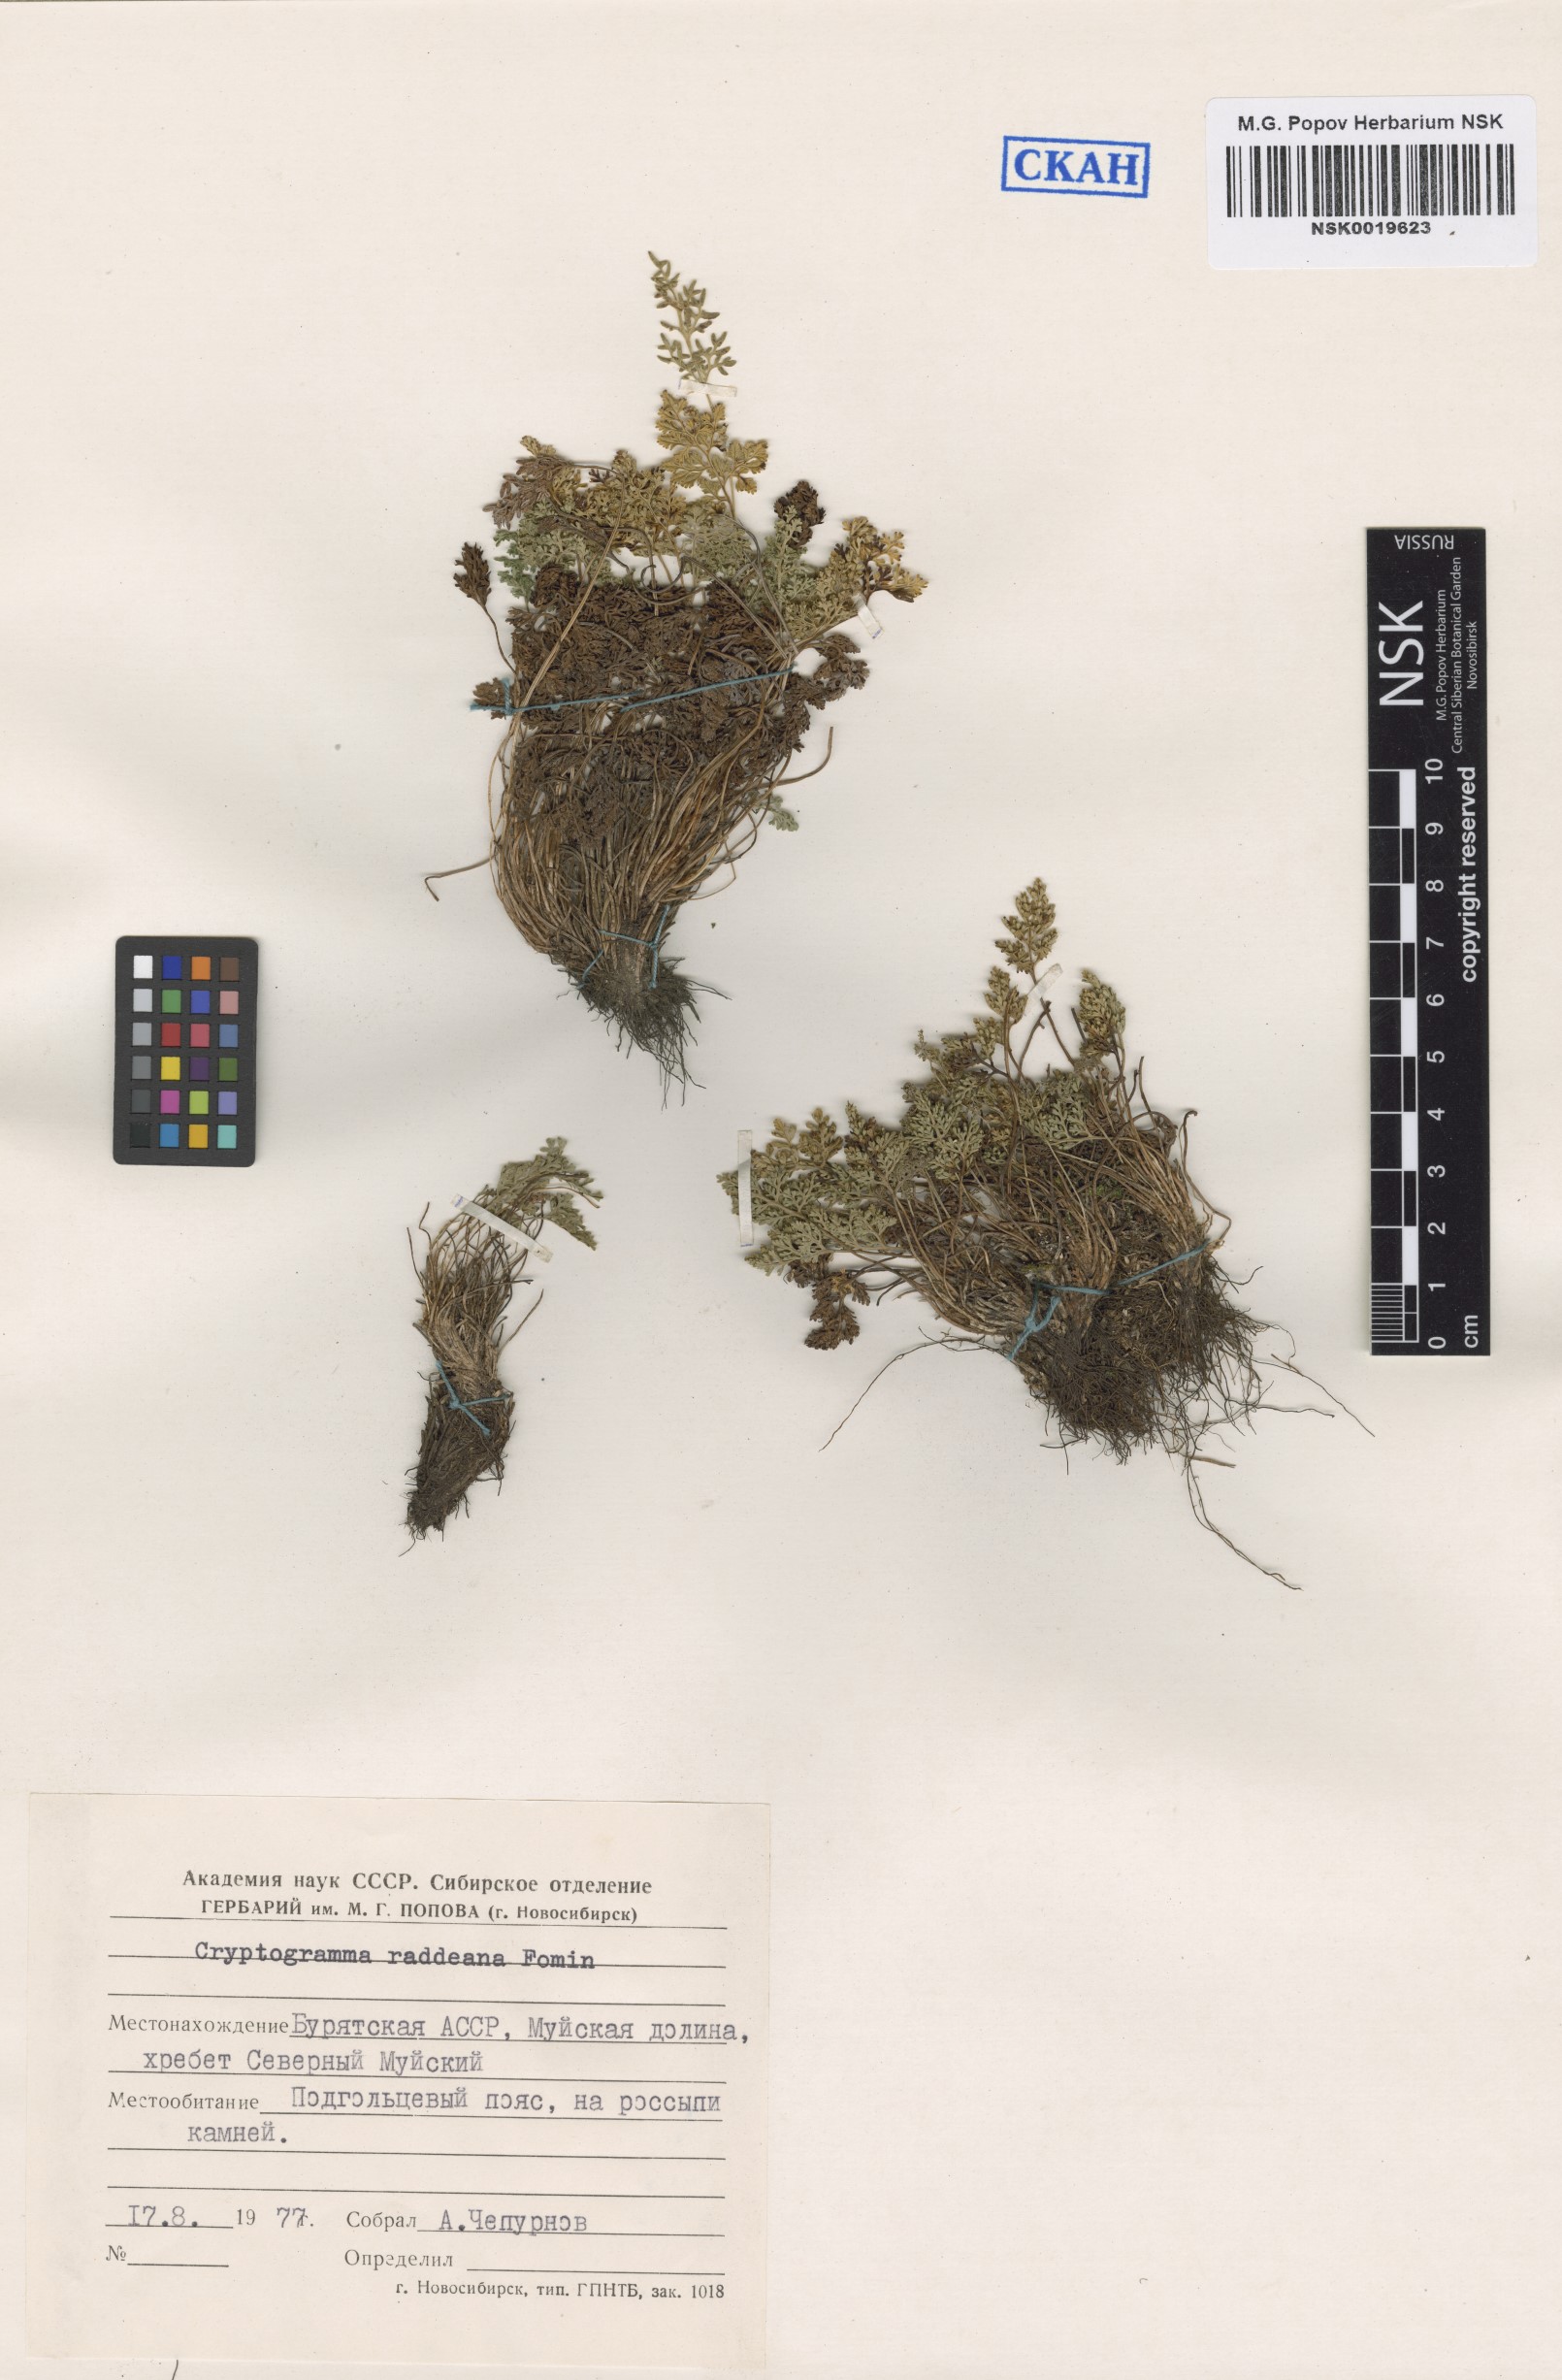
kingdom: Plantae
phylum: Tracheophyta
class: Polypodiopsida
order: Polypodiales
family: Pteridaceae
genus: Cryptogramma
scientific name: Cryptogramma brunoniana
